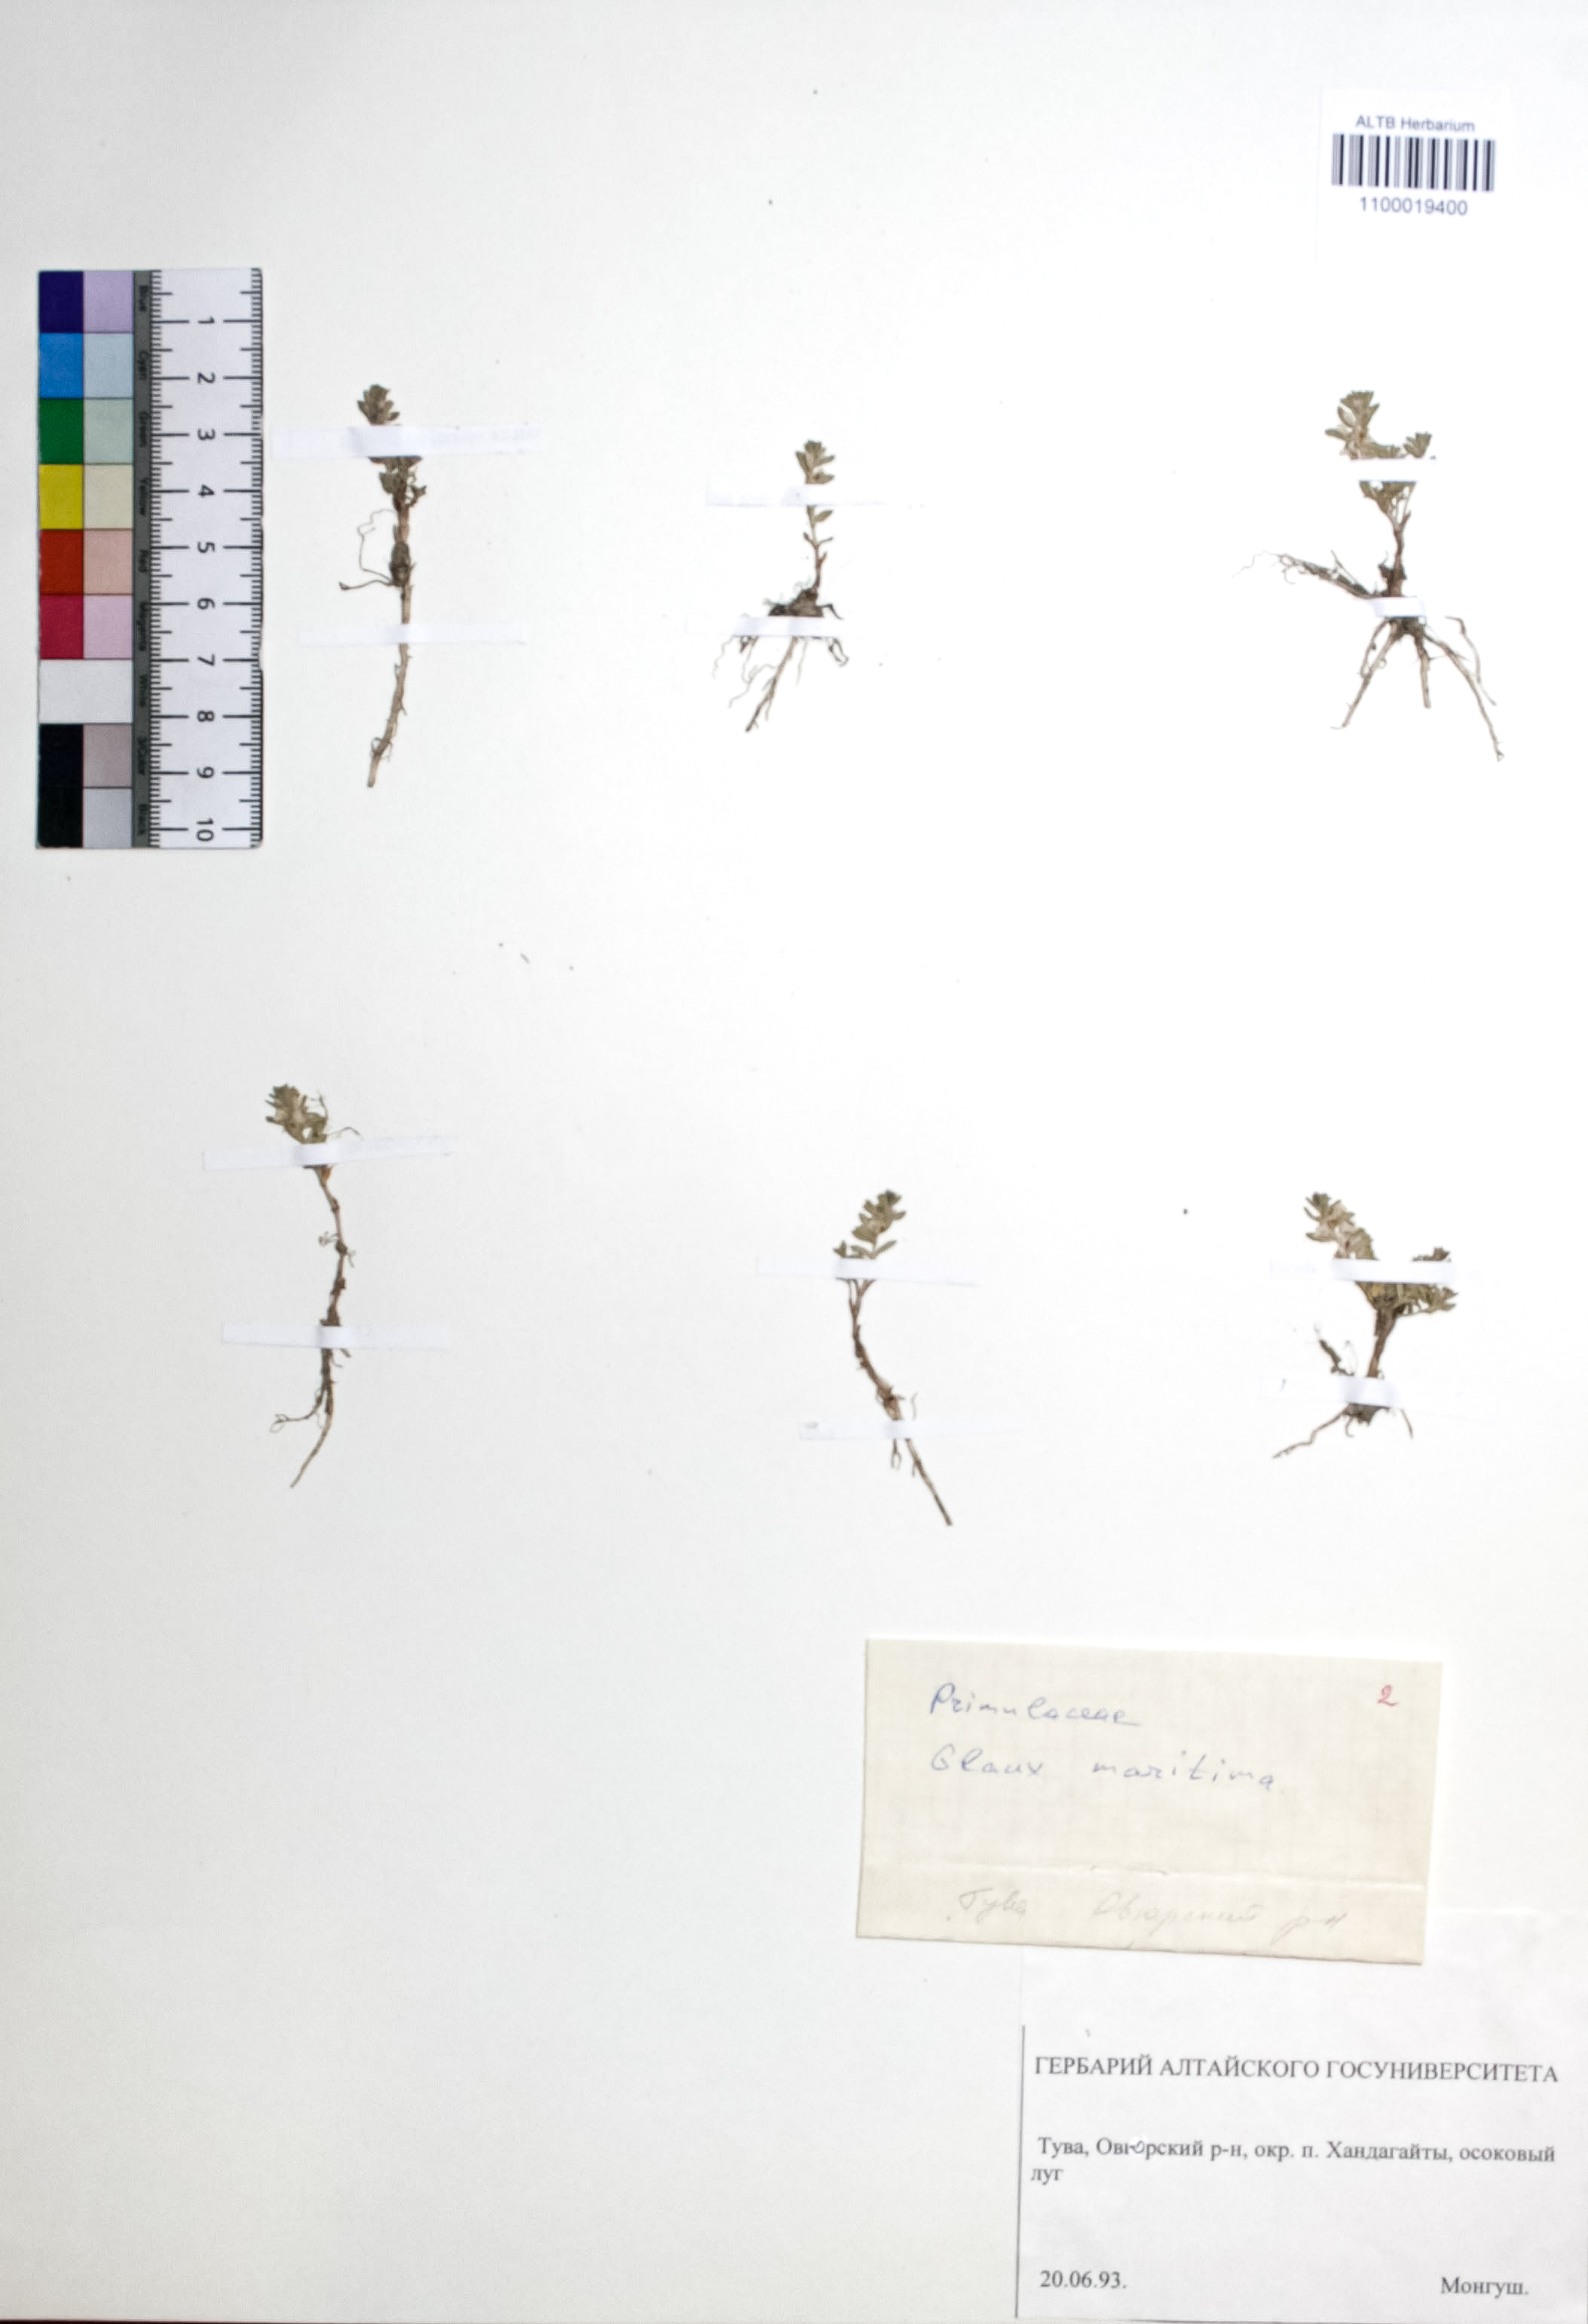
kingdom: Plantae
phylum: Tracheophyta
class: Magnoliopsida
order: Ericales
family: Primulaceae
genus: Lysimachia
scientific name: Lysimachia maritima
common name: Sea milkwort
